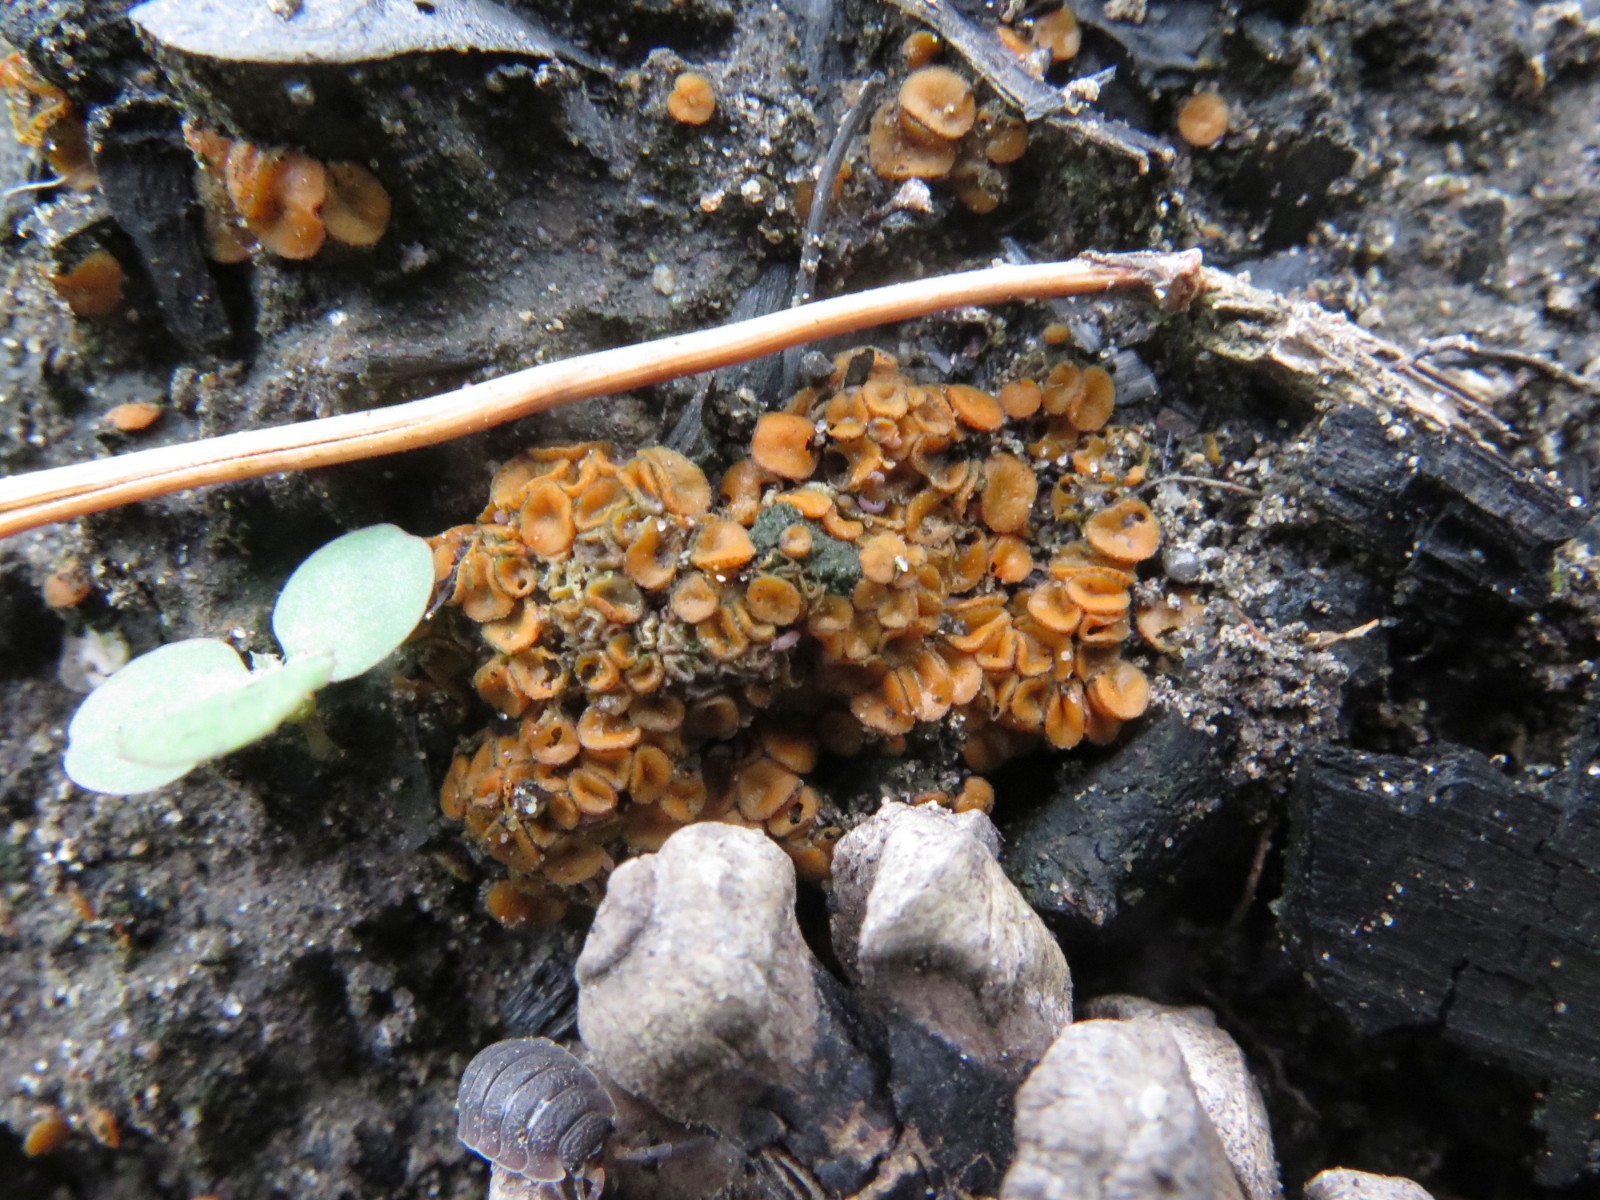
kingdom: Fungi
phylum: Ascomycota
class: Pezizomycetes
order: Pezizales
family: Pyronemataceae
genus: Anthracobia
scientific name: Anthracobia melaloma
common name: flamme-ildbæger
